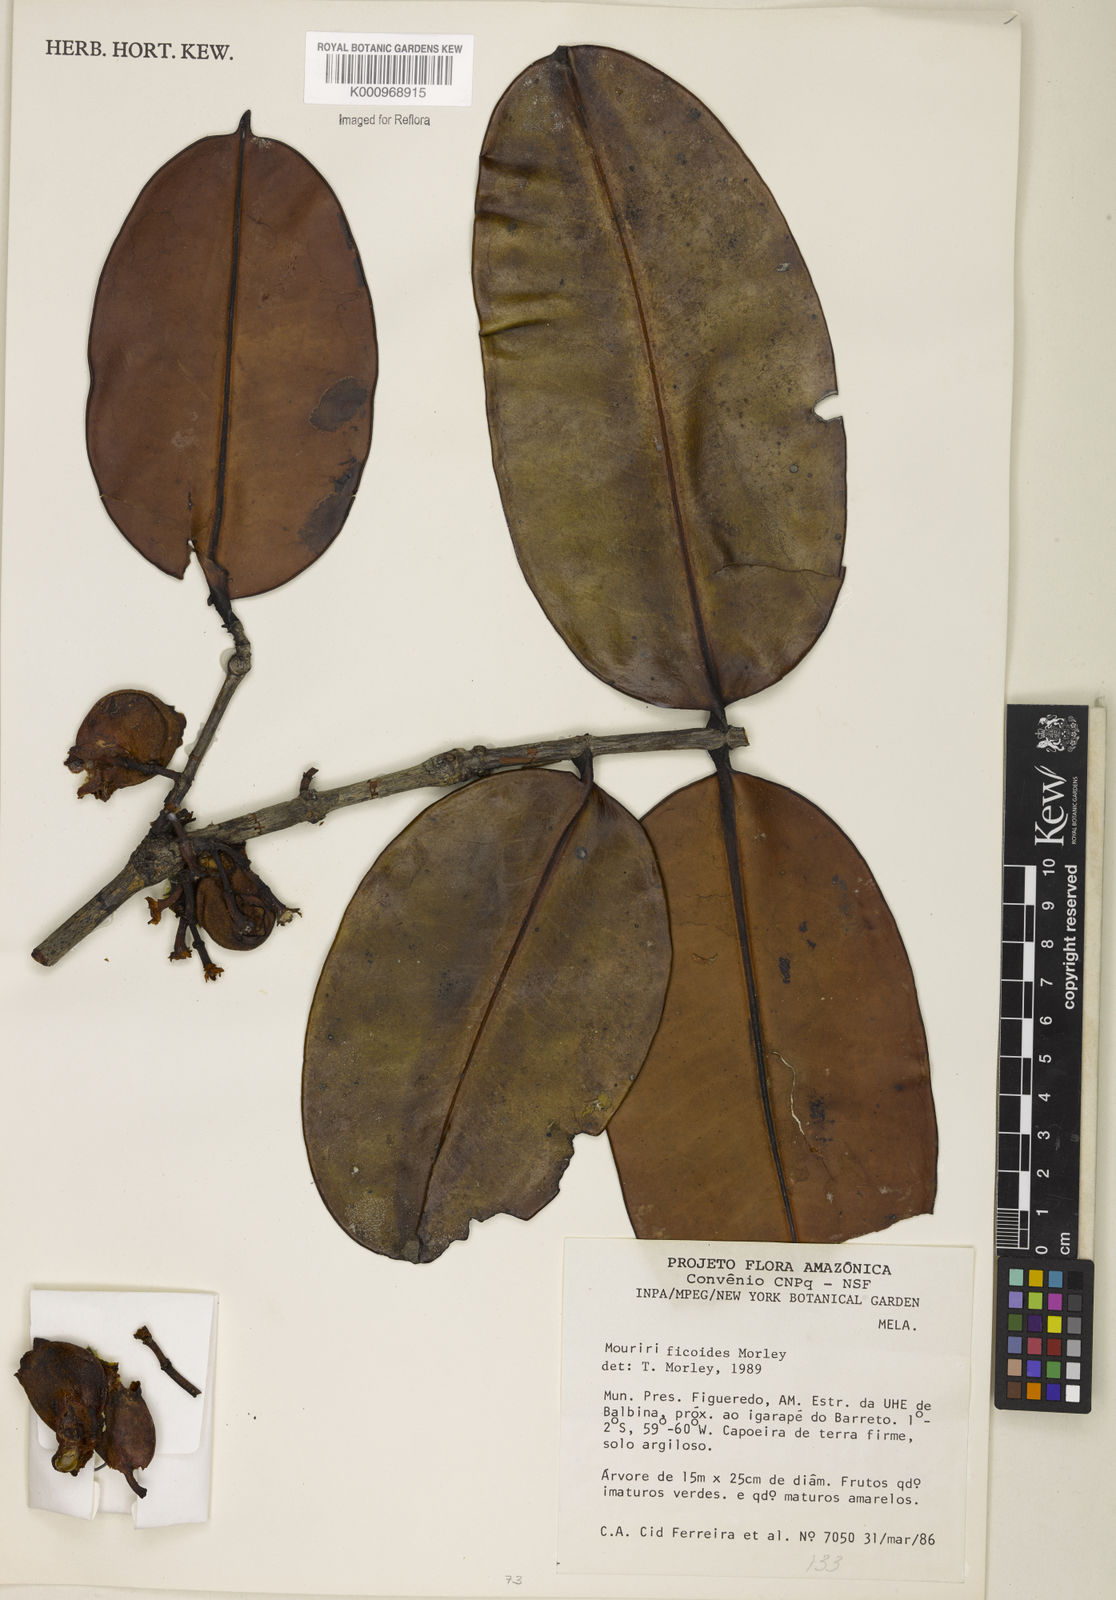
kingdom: Plantae
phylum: Tracheophyta
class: Magnoliopsida
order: Myrtales
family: Melastomataceae
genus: Mouriri
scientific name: Mouriri ficoides
